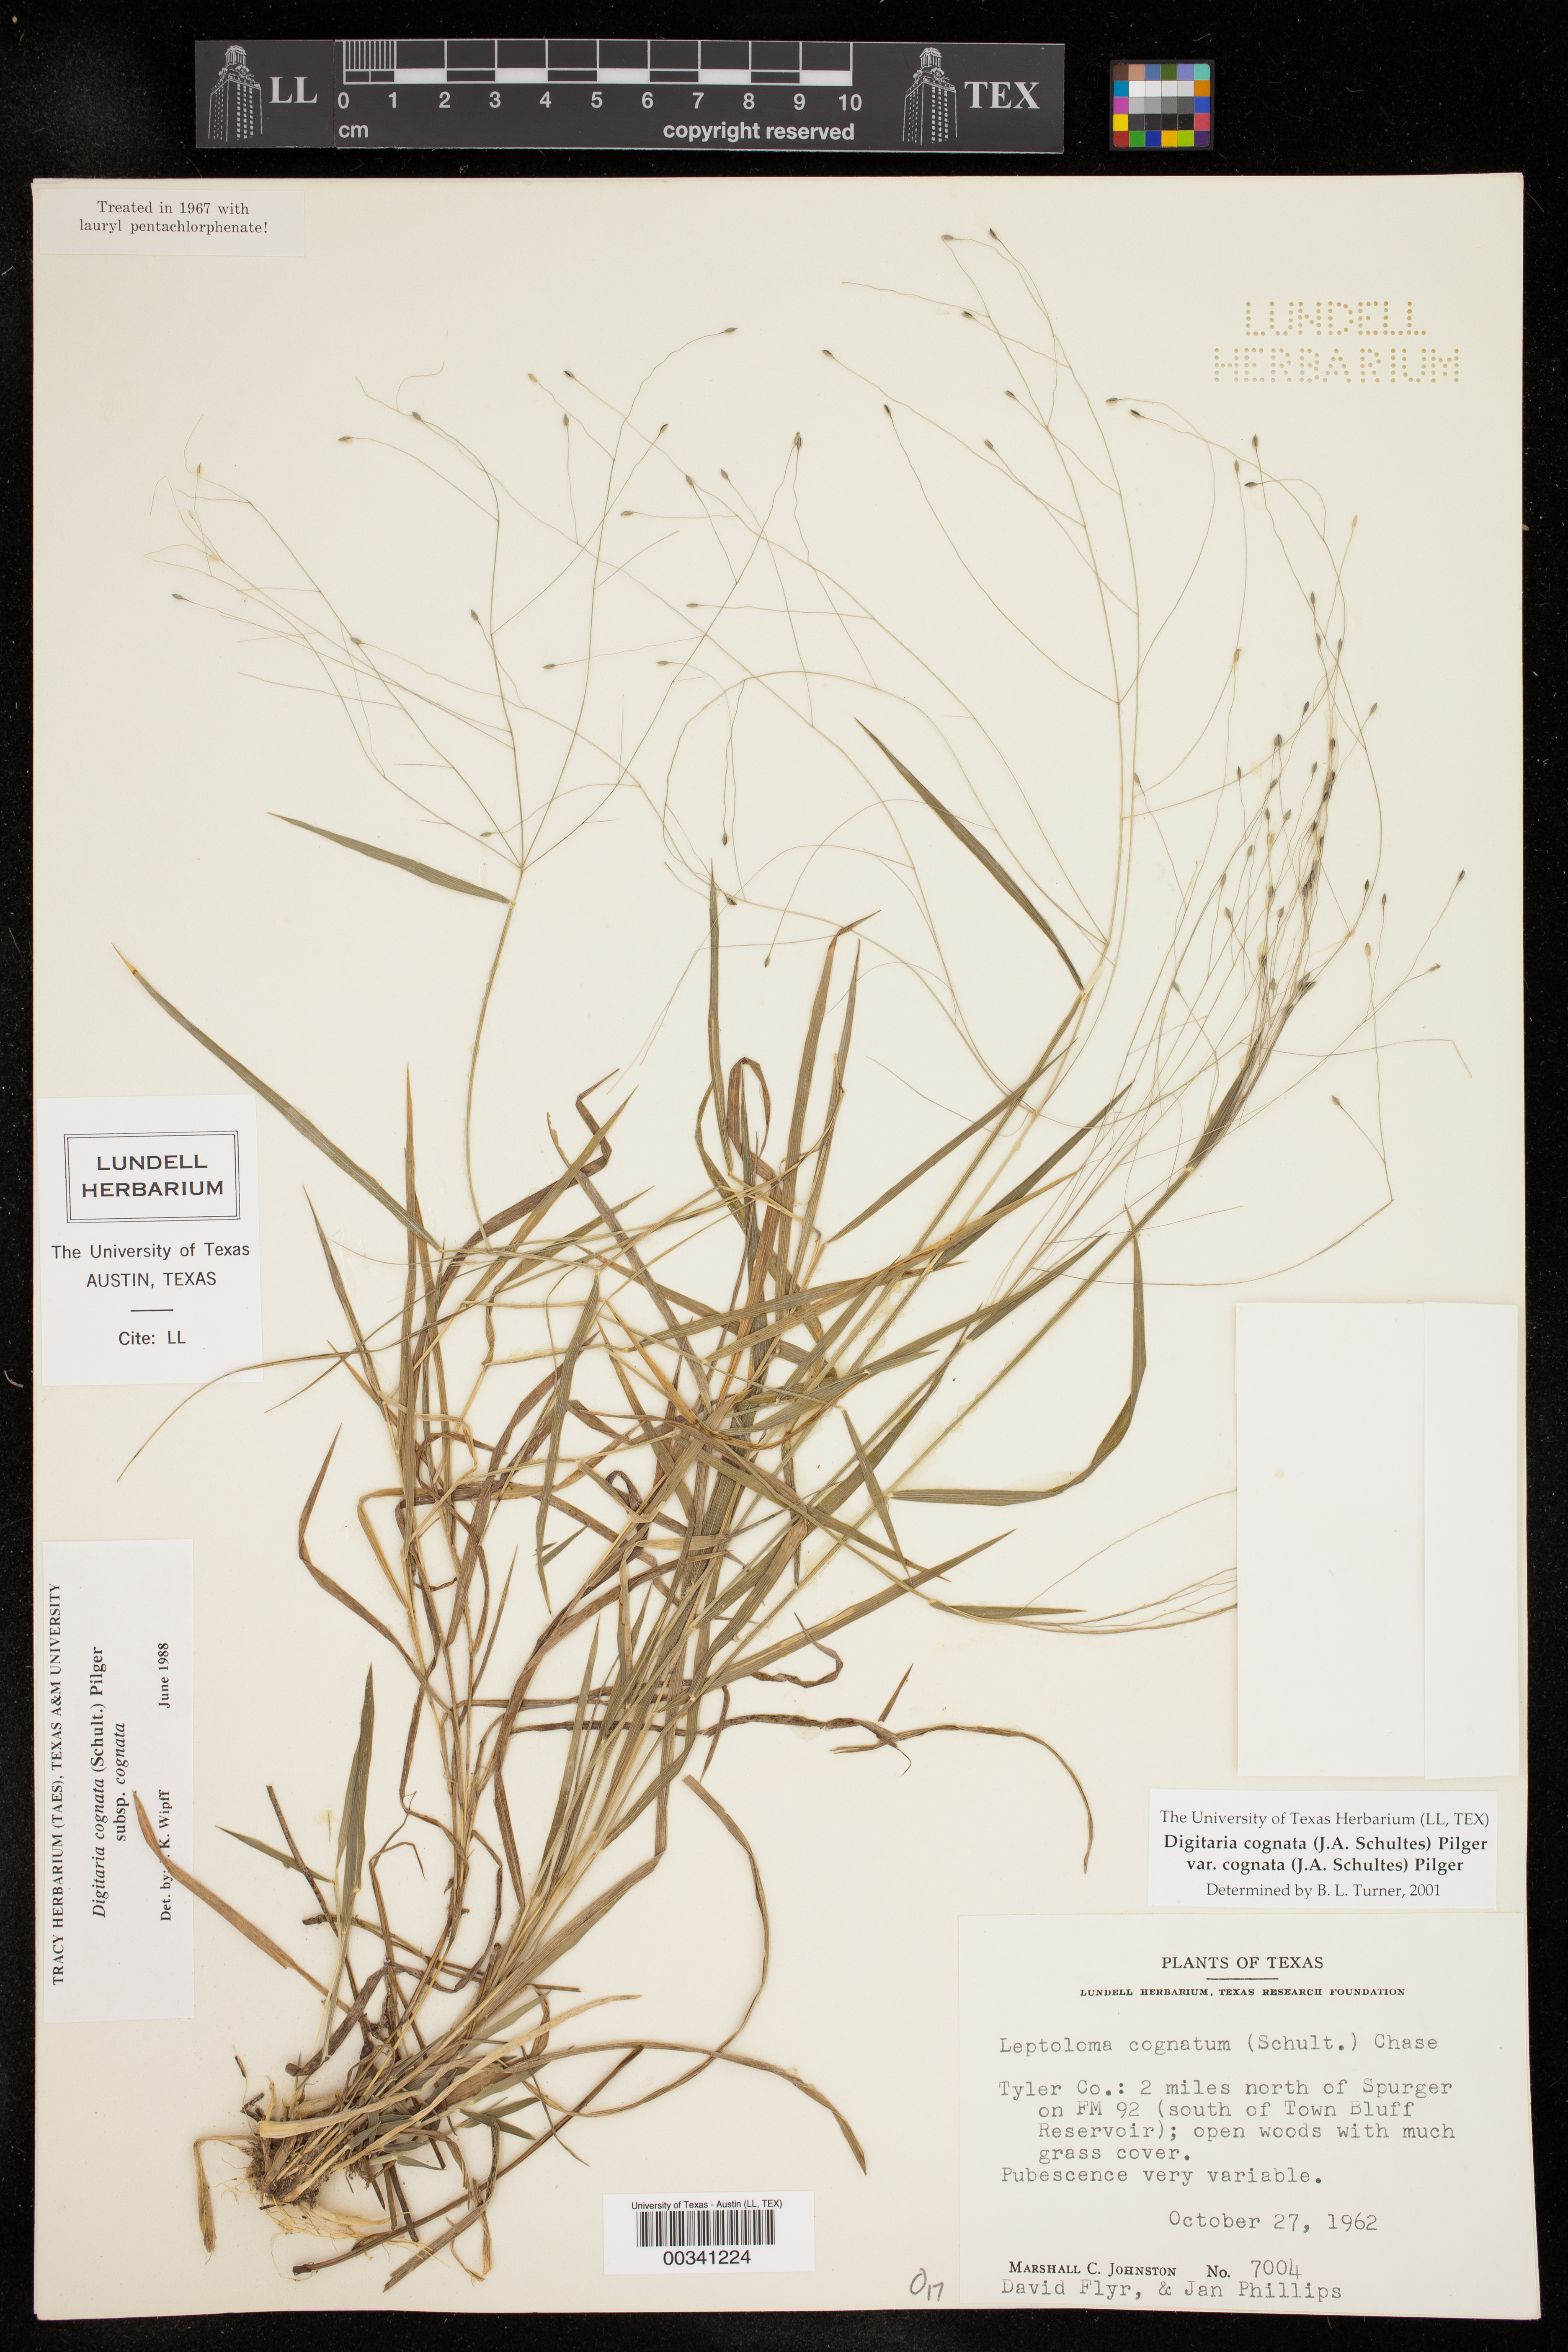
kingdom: Plantae
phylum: Tracheophyta
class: Liliopsida
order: Poales
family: Poaceae
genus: Digitaria
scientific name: Digitaria cognata
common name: Fall witchgrass
